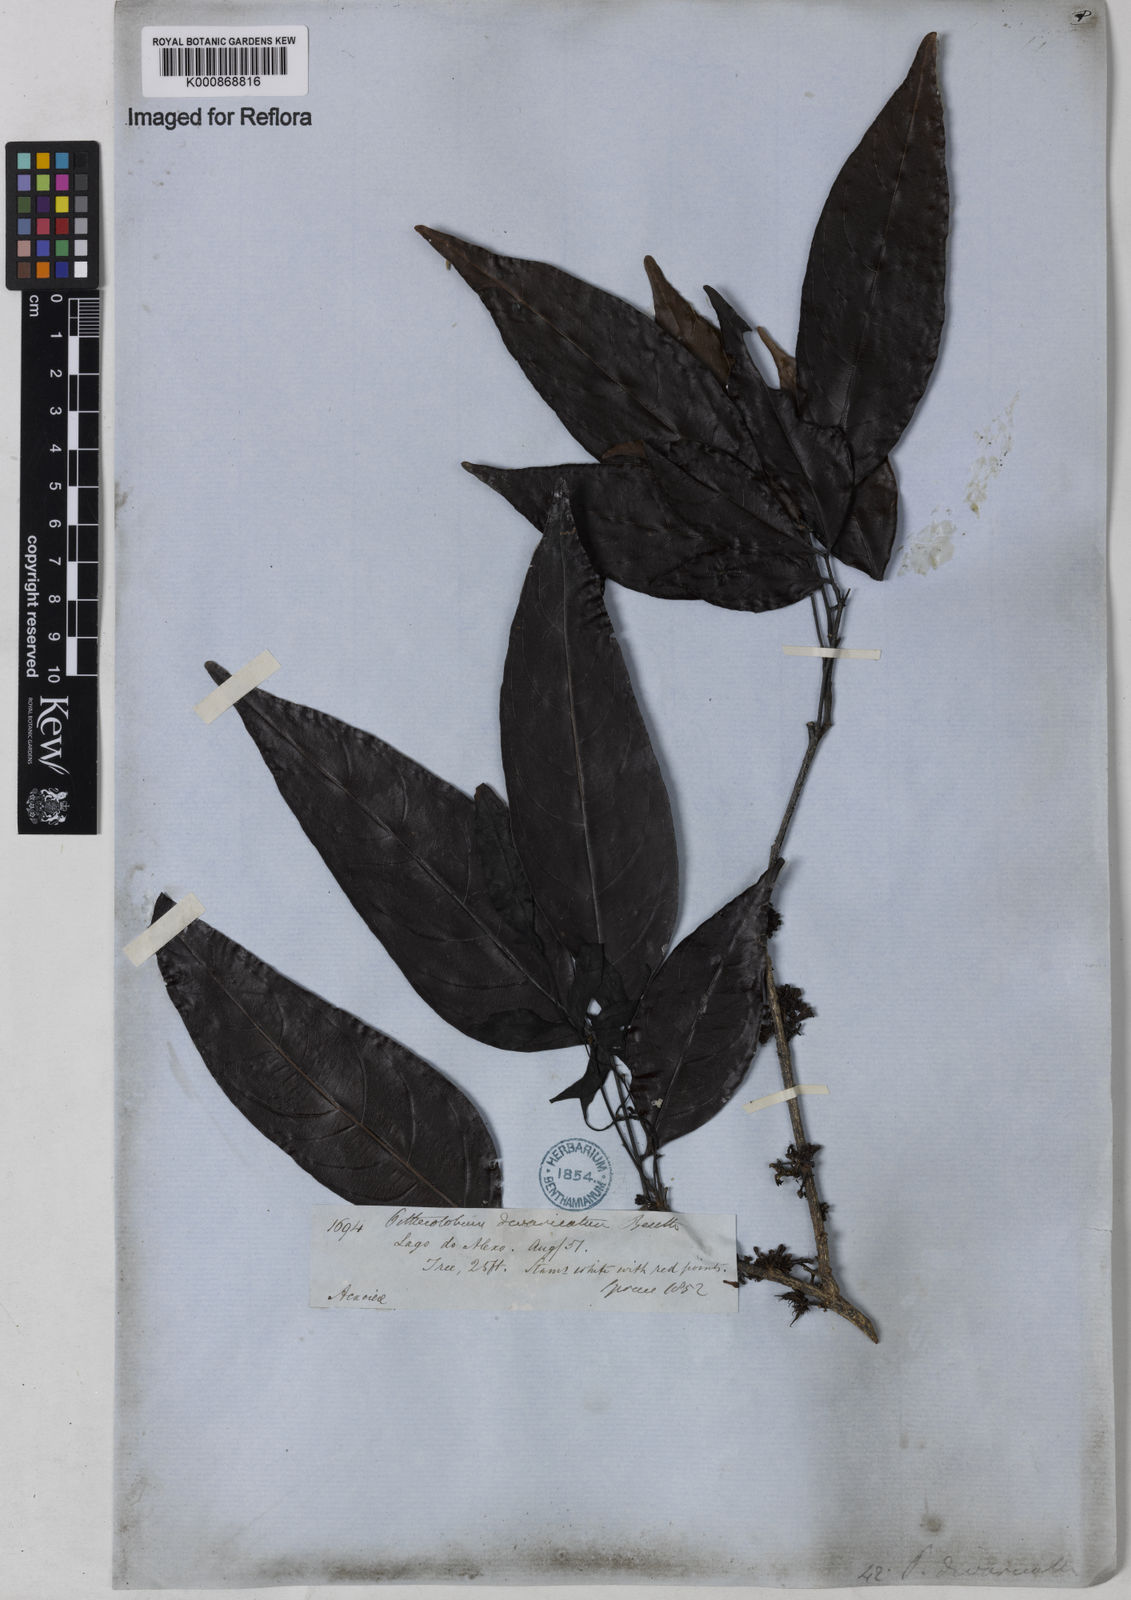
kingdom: Plantae
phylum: Tracheophyta
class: Magnoliopsida
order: Fabales
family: Fabaceae
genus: Zygia
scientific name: Zygia cataractae
